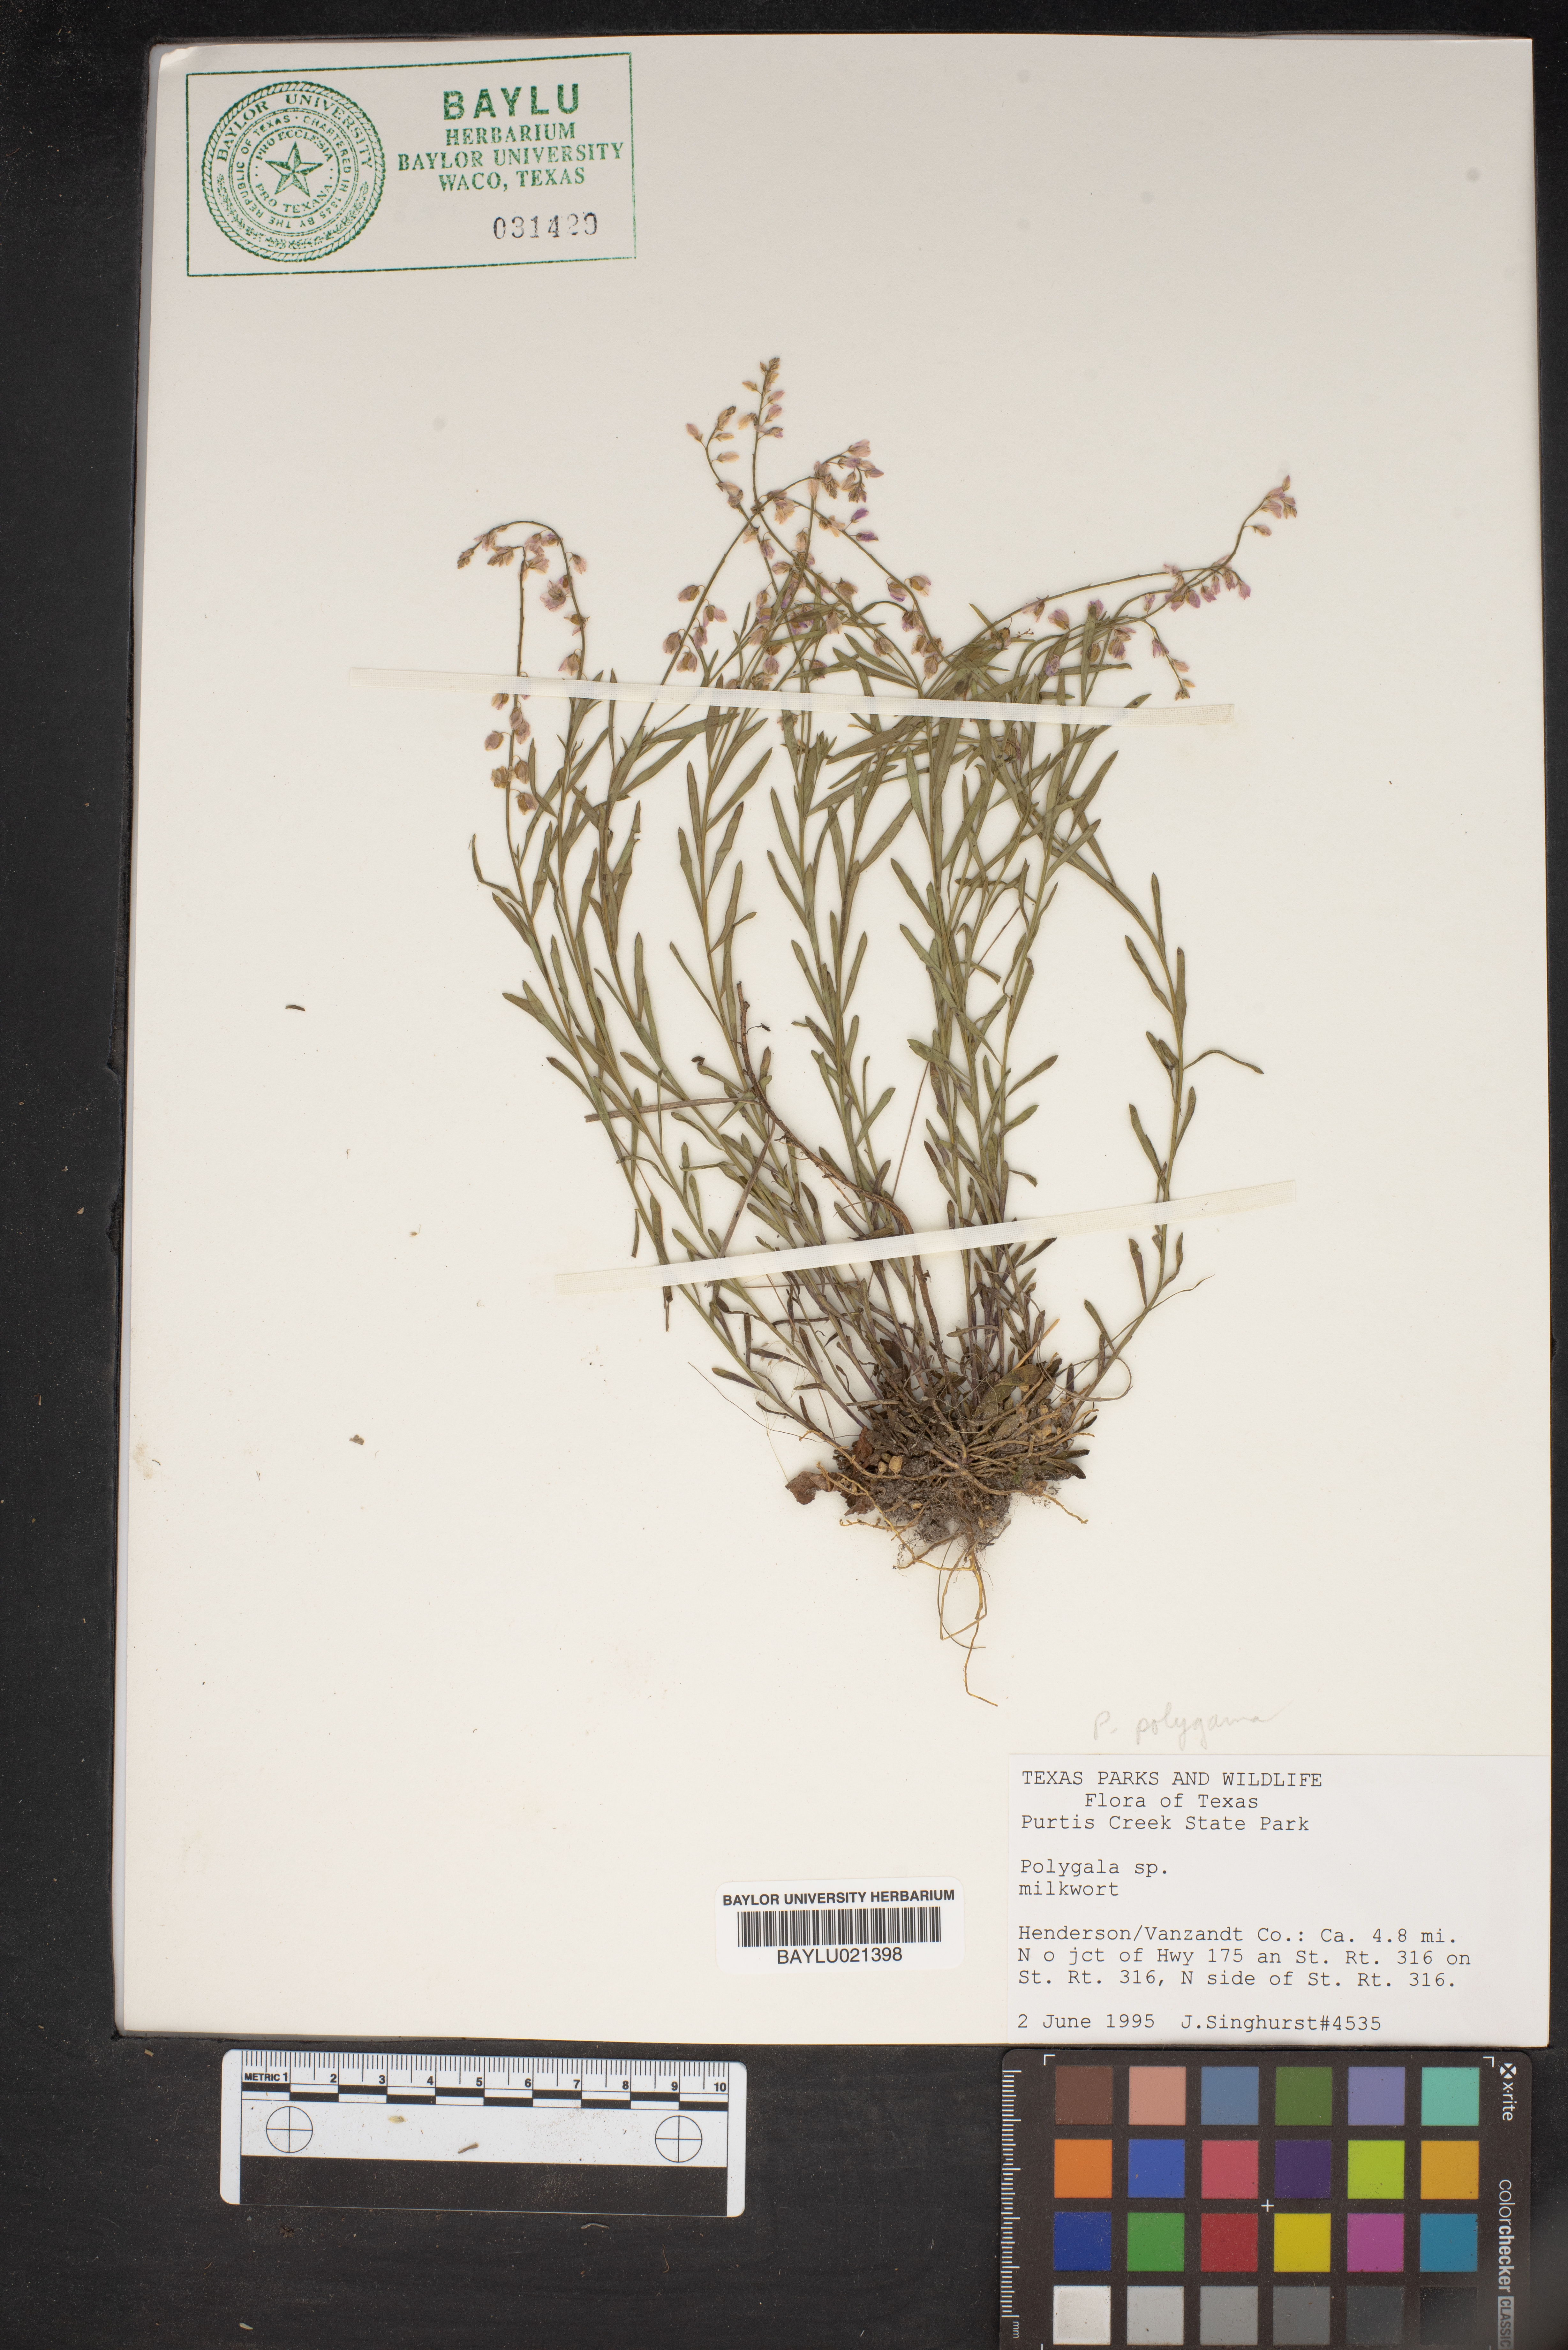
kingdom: Plantae
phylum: Tracheophyta
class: Magnoliopsida
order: Fabales
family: Polygalaceae
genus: Polygala
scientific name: Polygala
